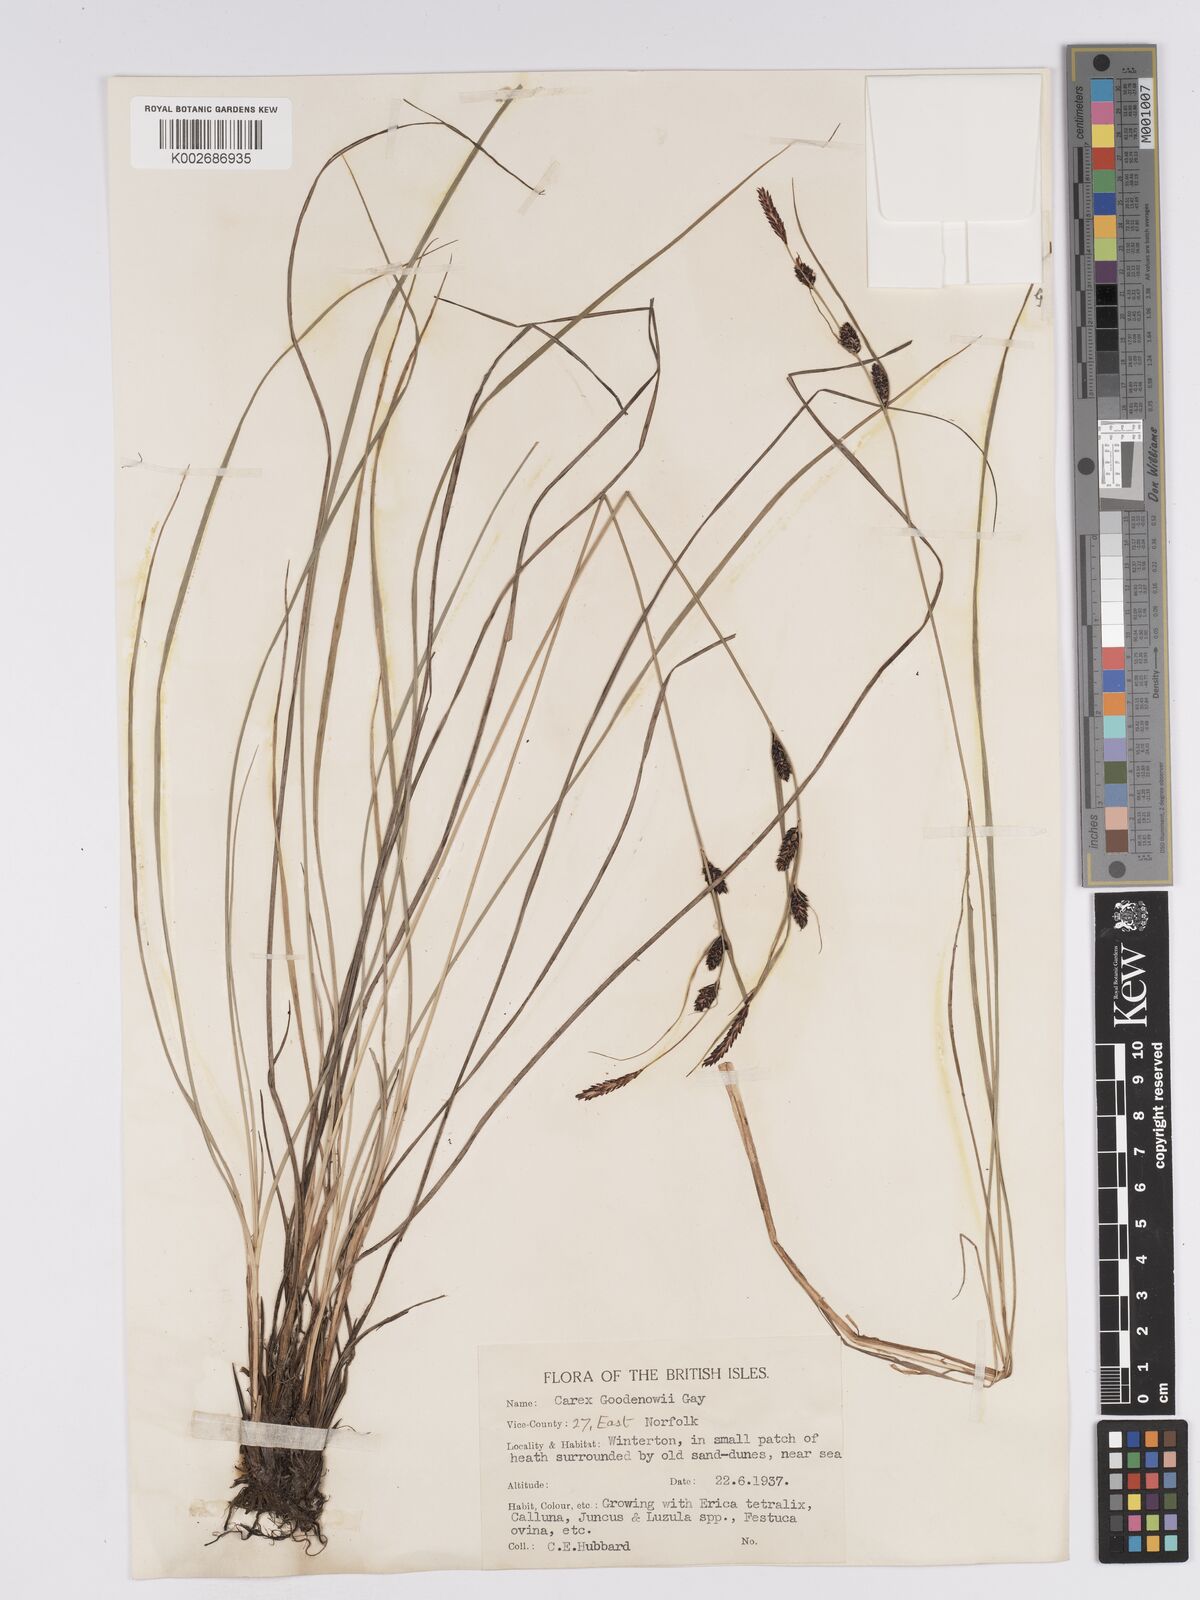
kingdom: Plantae
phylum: Tracheophyta
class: Liliopsida
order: Poales
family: Cyperaceae
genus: Carex
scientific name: Carex nigra
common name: Common sedge
